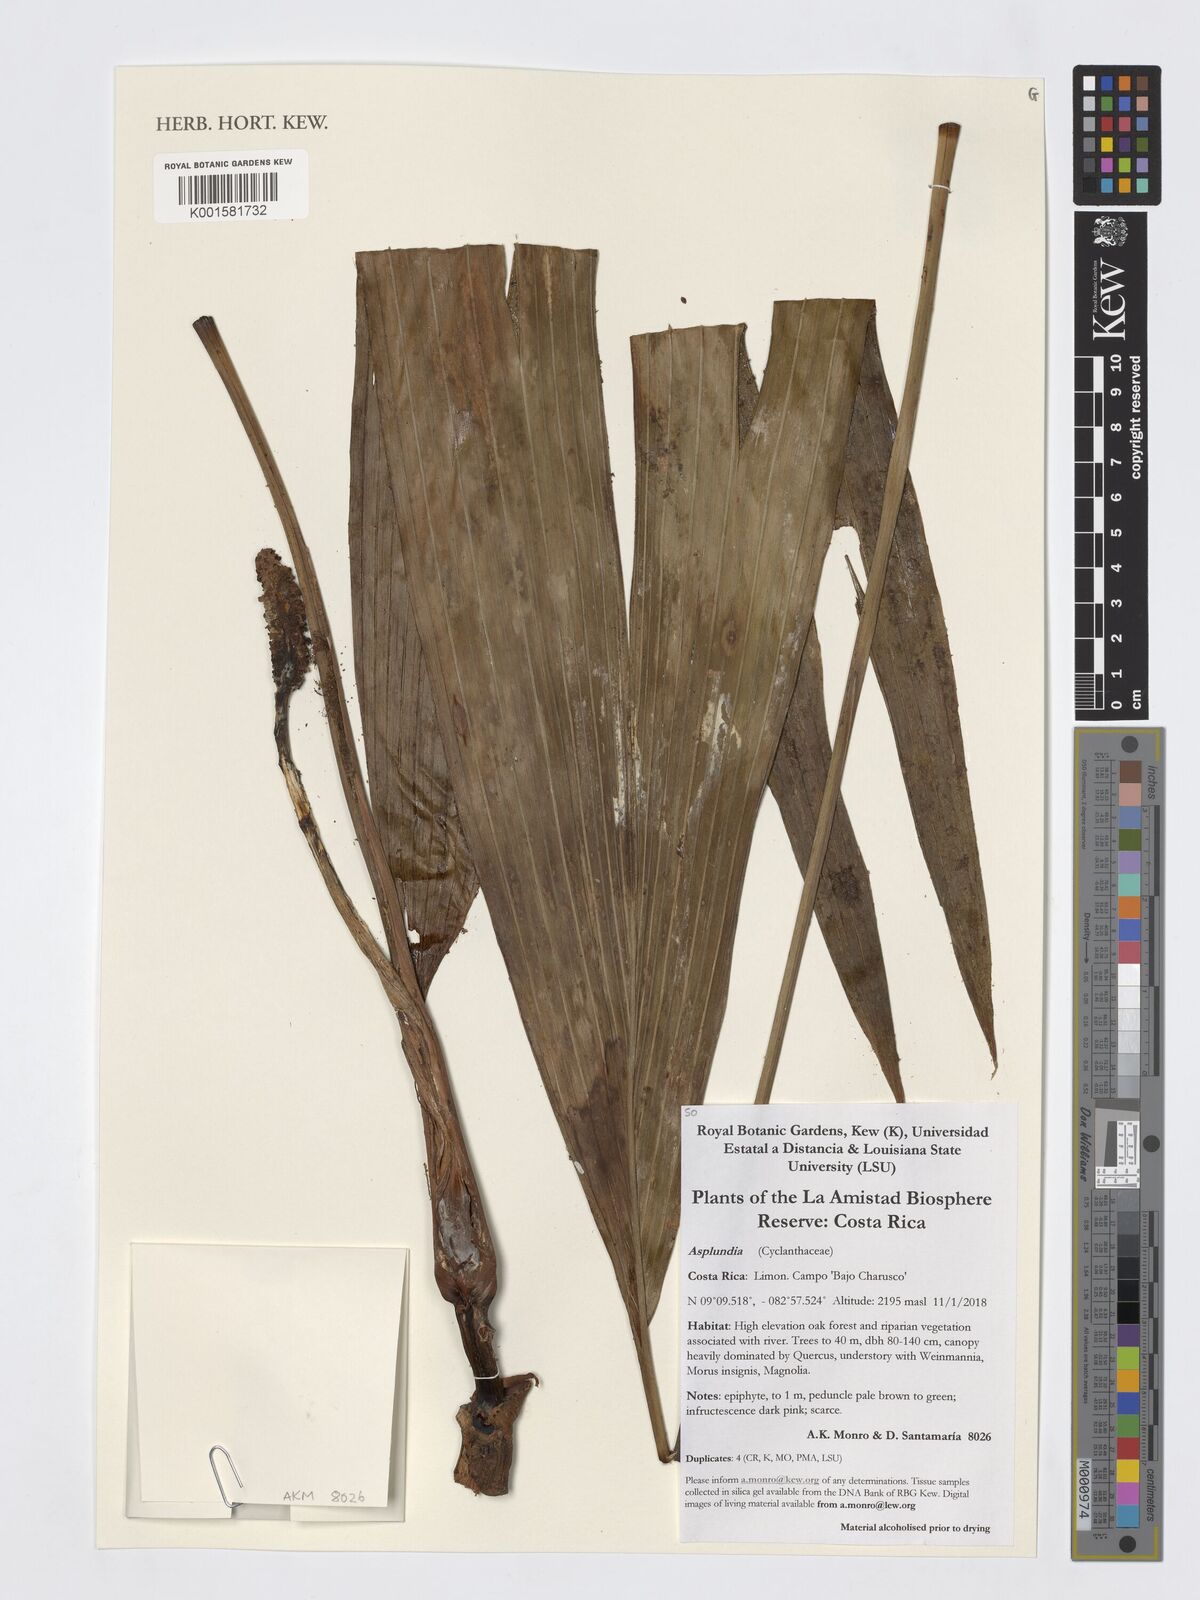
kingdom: Plantae
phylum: Tracheophyta
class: Liliopsida
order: Pandanales
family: Cyclanthaceae
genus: Asplundia
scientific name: Asplundia
